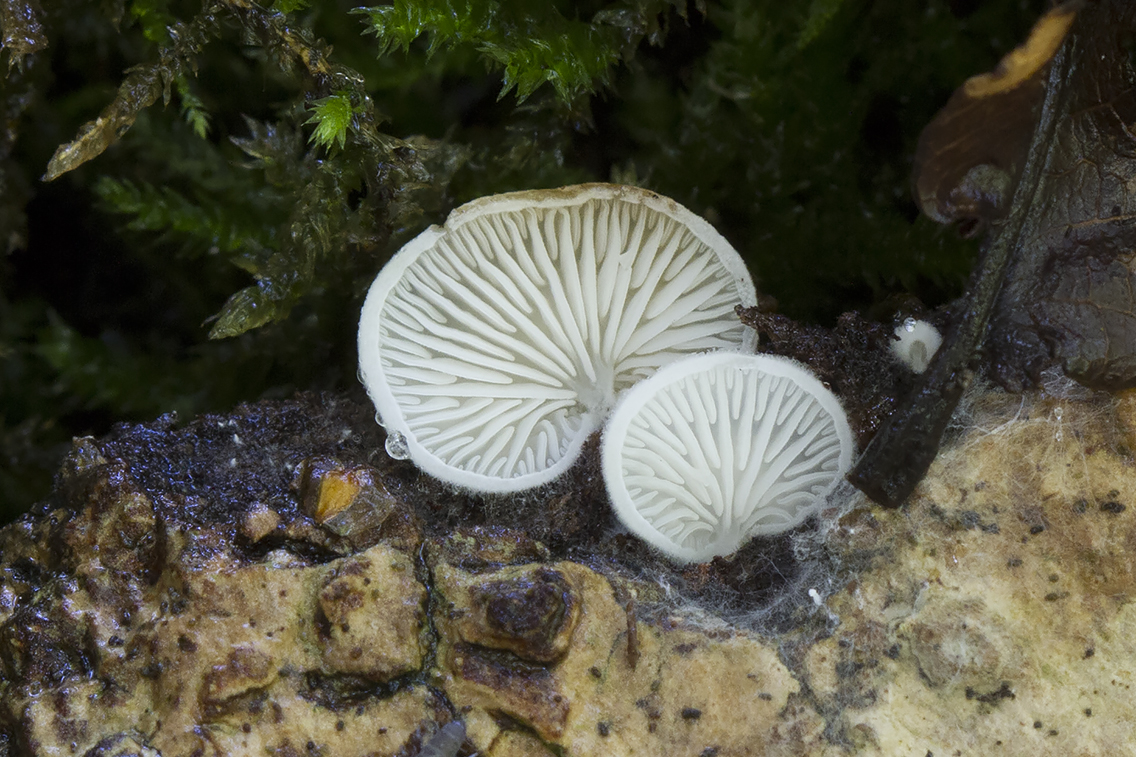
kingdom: Fungi
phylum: Basidiomycota
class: Agaricomycetes
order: Agaricales
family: Entolomataceae
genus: Clitopilus
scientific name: Clitopilus hobsonii
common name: Miller's oysterling
